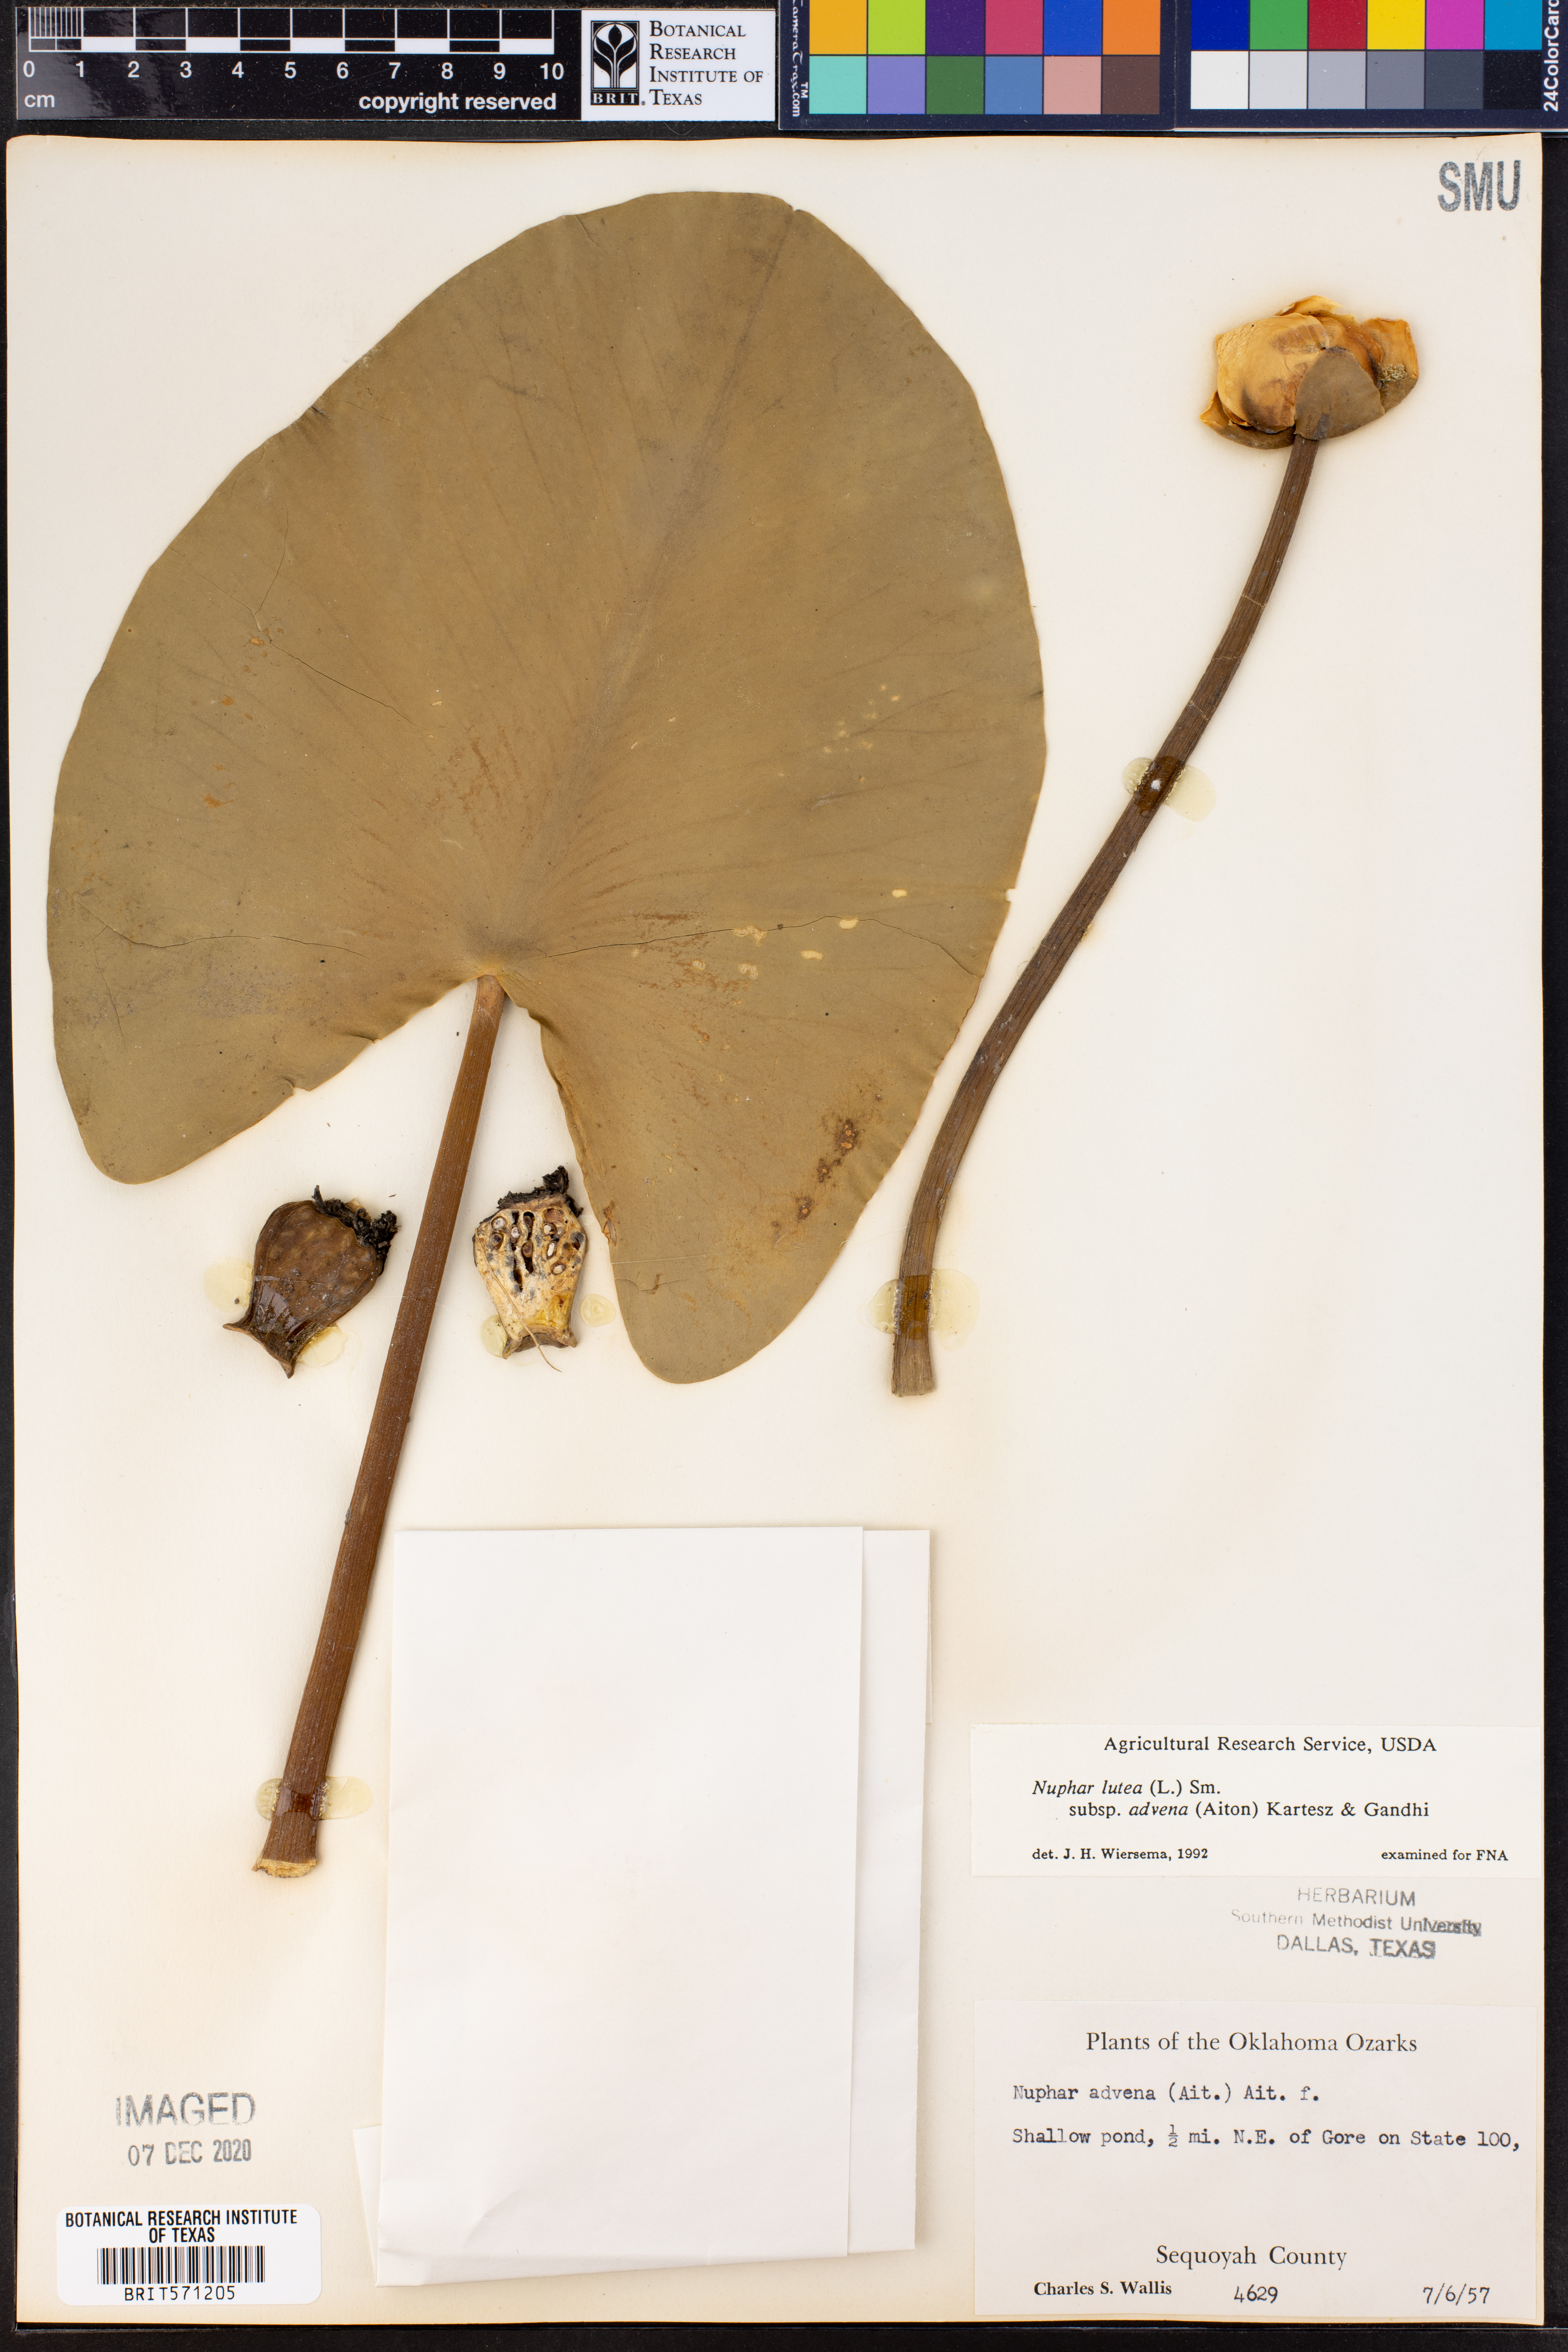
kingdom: Plantae
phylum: Tracheophyta
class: Magnoliopsida
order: Nymphaeales
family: Nymphaeaceae
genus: Nuphar
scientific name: Nuphar advena
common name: Spatter-dock
